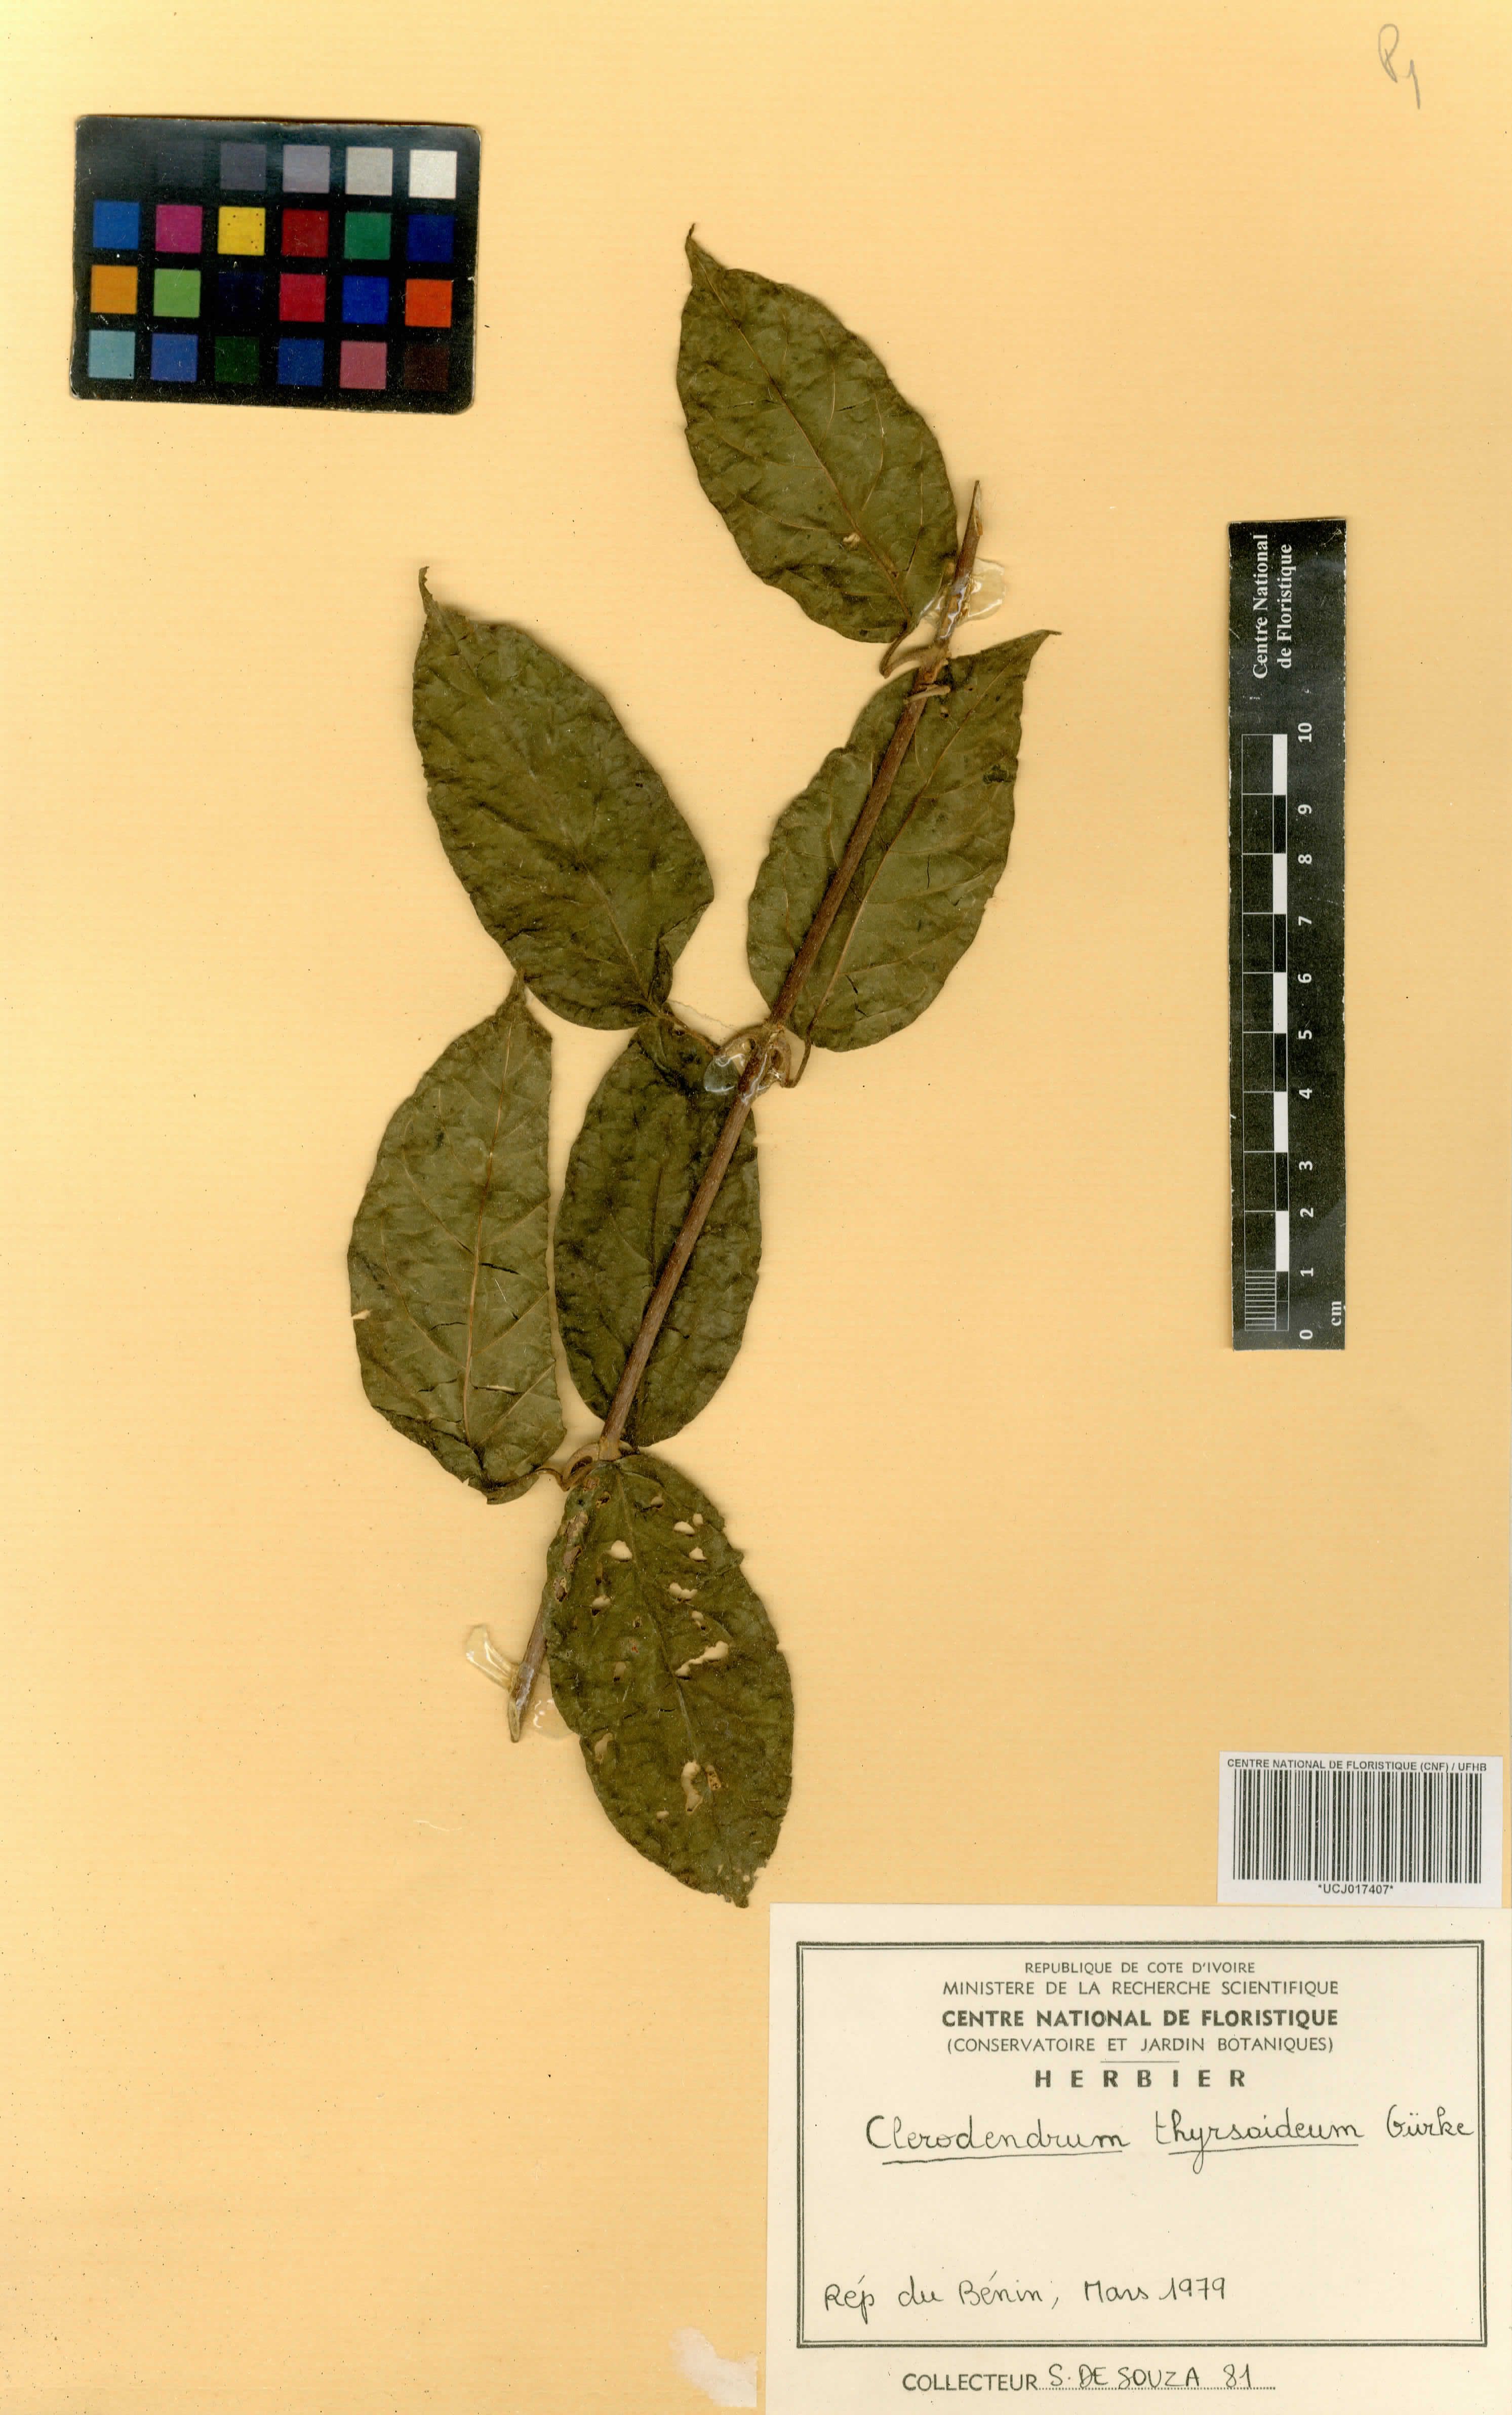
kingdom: Plantae
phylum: Tracheophyta
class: Magnoliopsida
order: Lamiales
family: Lamiaceae
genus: Clerodendrum
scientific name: Clerodendrum thyrsoideum
